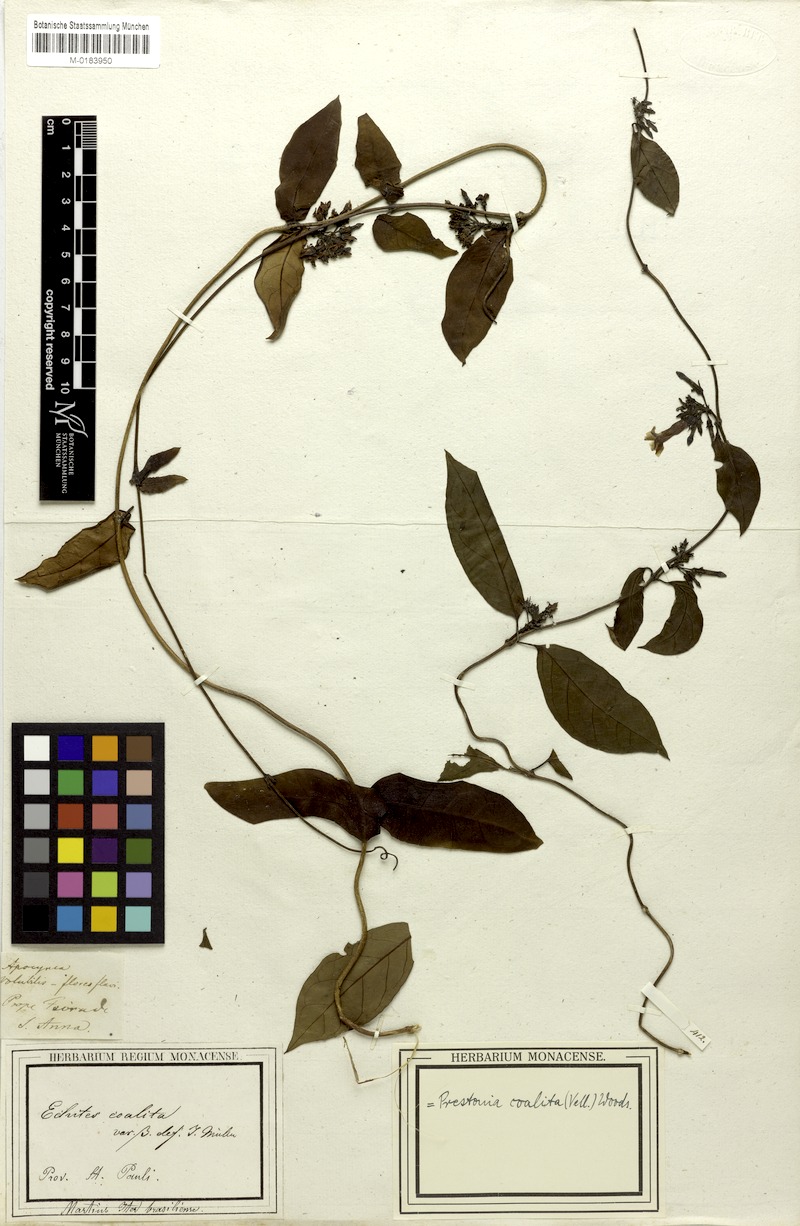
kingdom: Plantae
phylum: Tracheophyta
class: Magnoliopsida
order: Gentianales
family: Apocynaceae
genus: Prestonia
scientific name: Prestonia coalita
